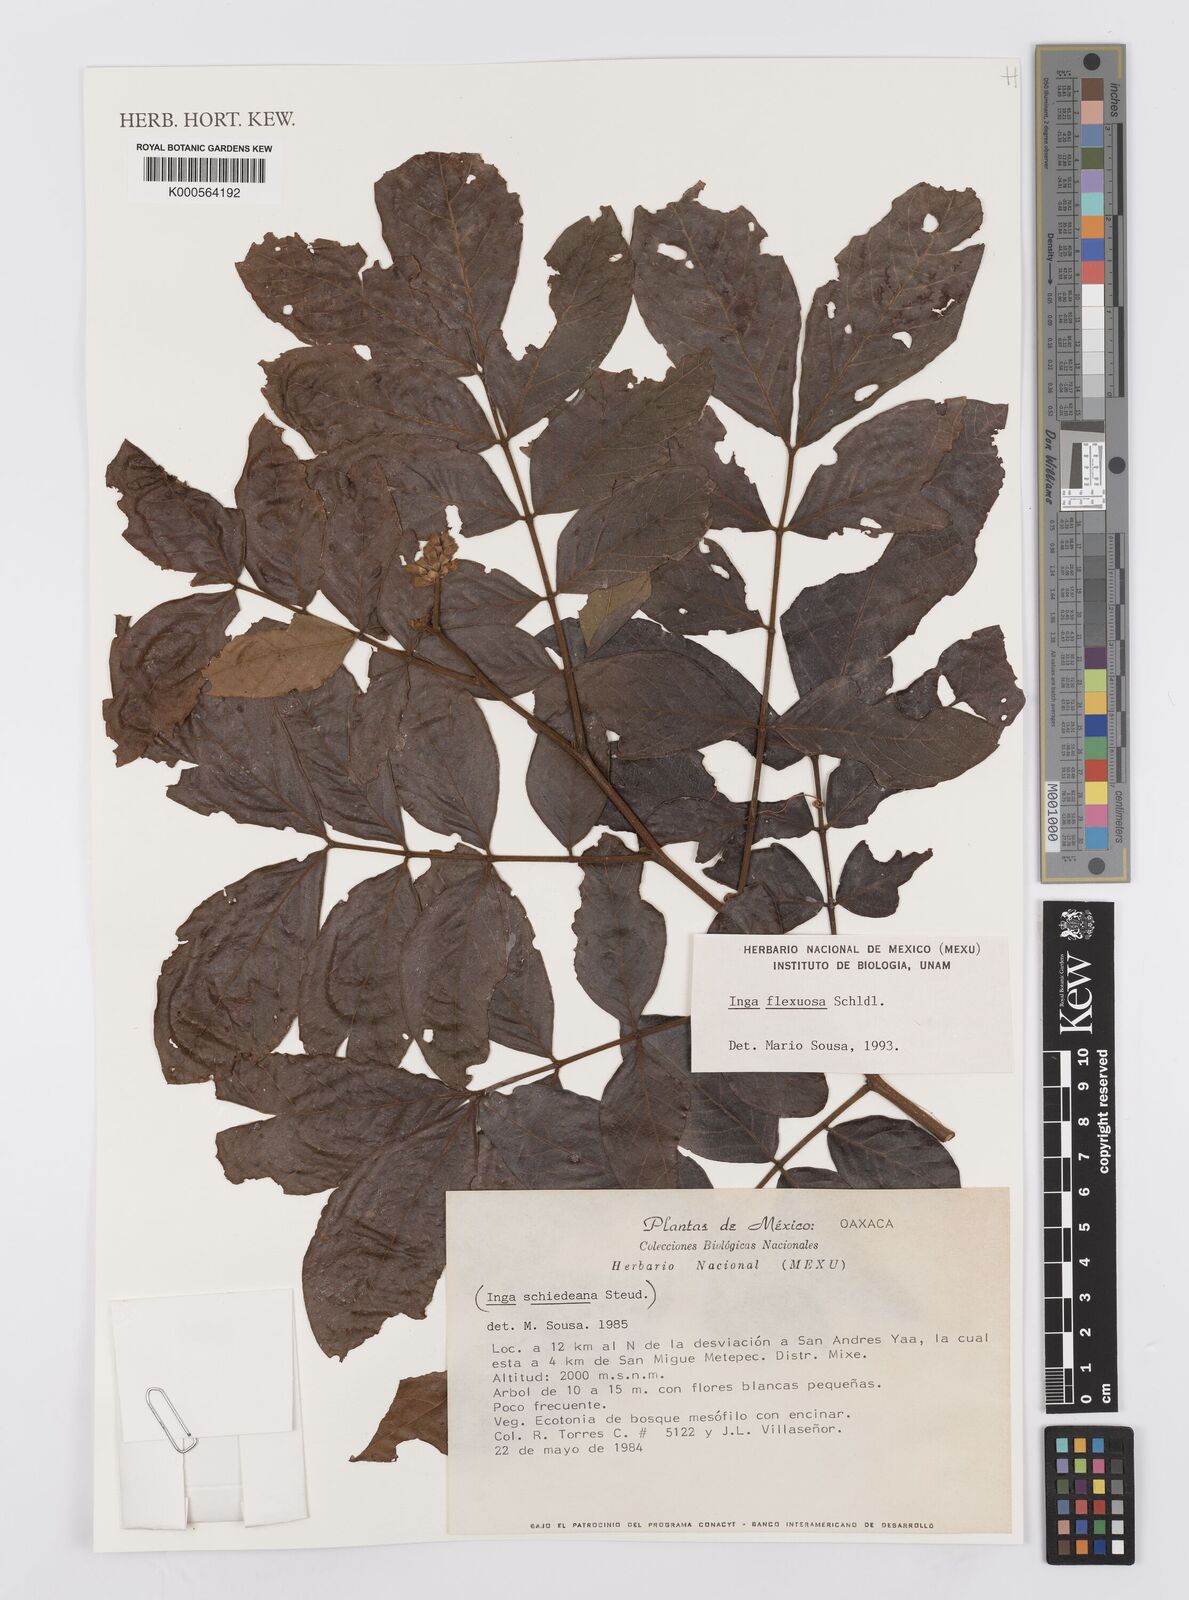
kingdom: Plantae
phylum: Tracheophyta
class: Magnoliopsida
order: Fabales
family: Fabaceae
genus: Inga
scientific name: Inga flexuosa
